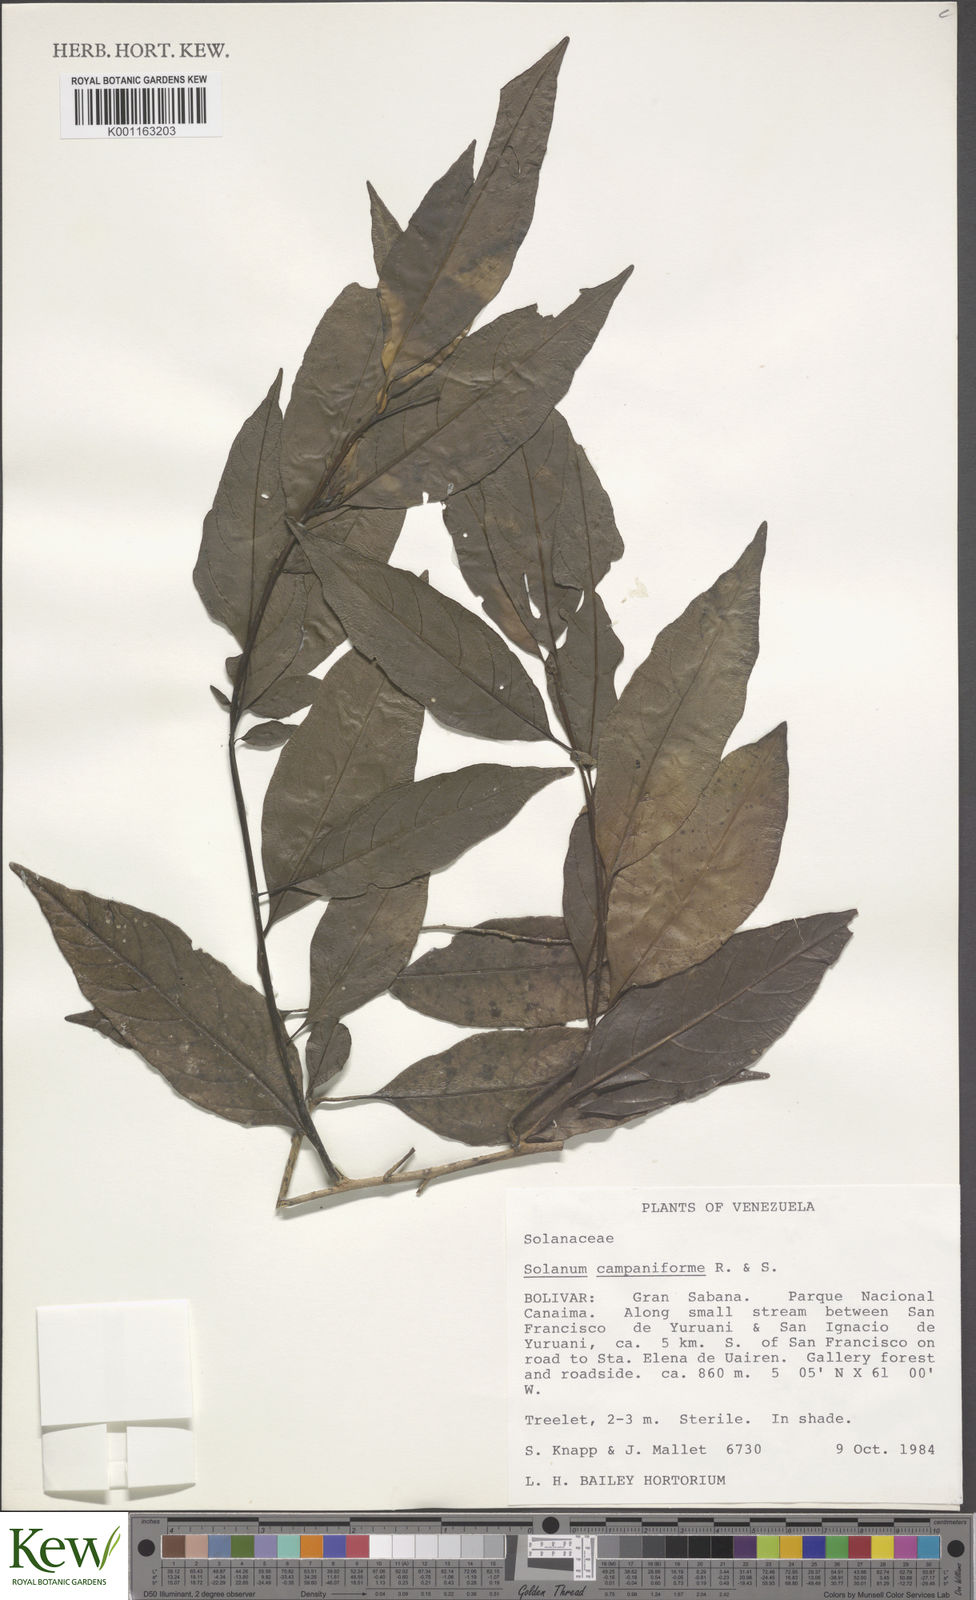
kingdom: Plantae
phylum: Tracheophyta
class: Magnoliopsida
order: Solanales
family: Solanaceae
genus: Solanum
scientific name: Solanum campaniforme
